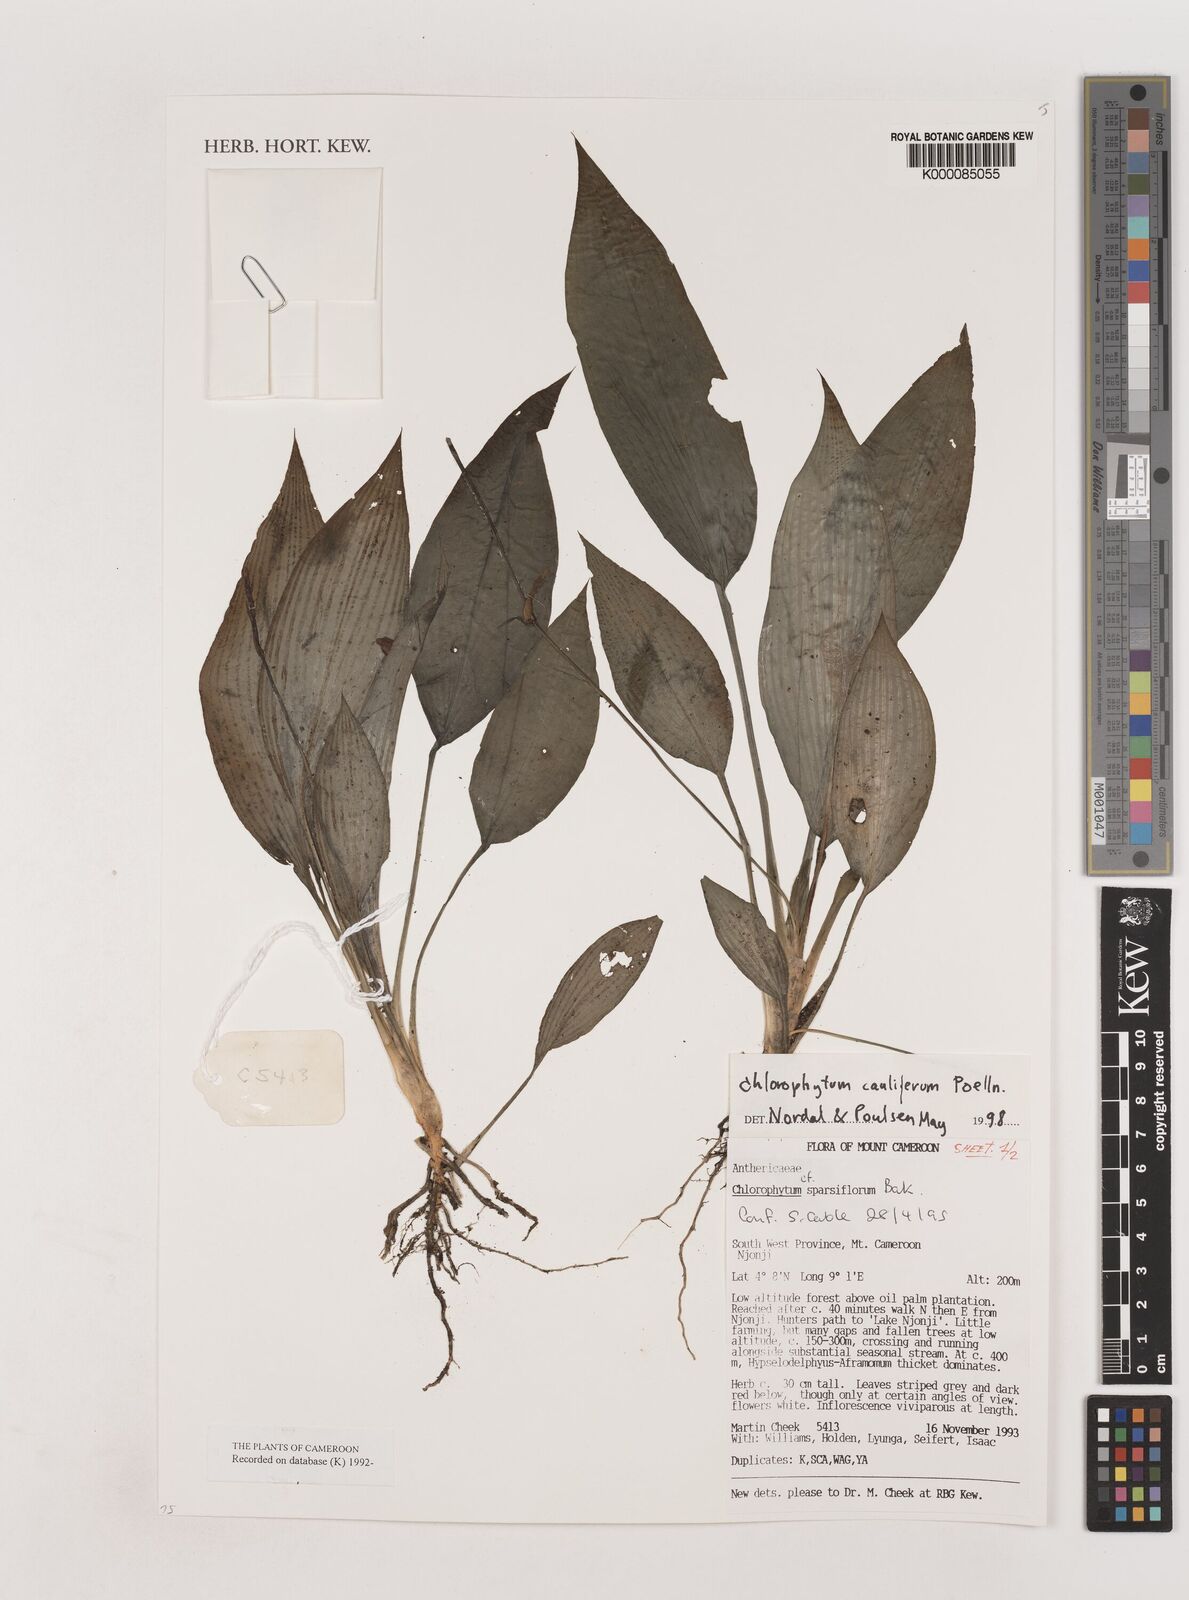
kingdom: Plantae
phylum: Tracheophyta
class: Liliopsida
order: Asparagales
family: Asparagaceae
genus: Chlorophytum
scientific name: Chlorophytum sparsiflorum
